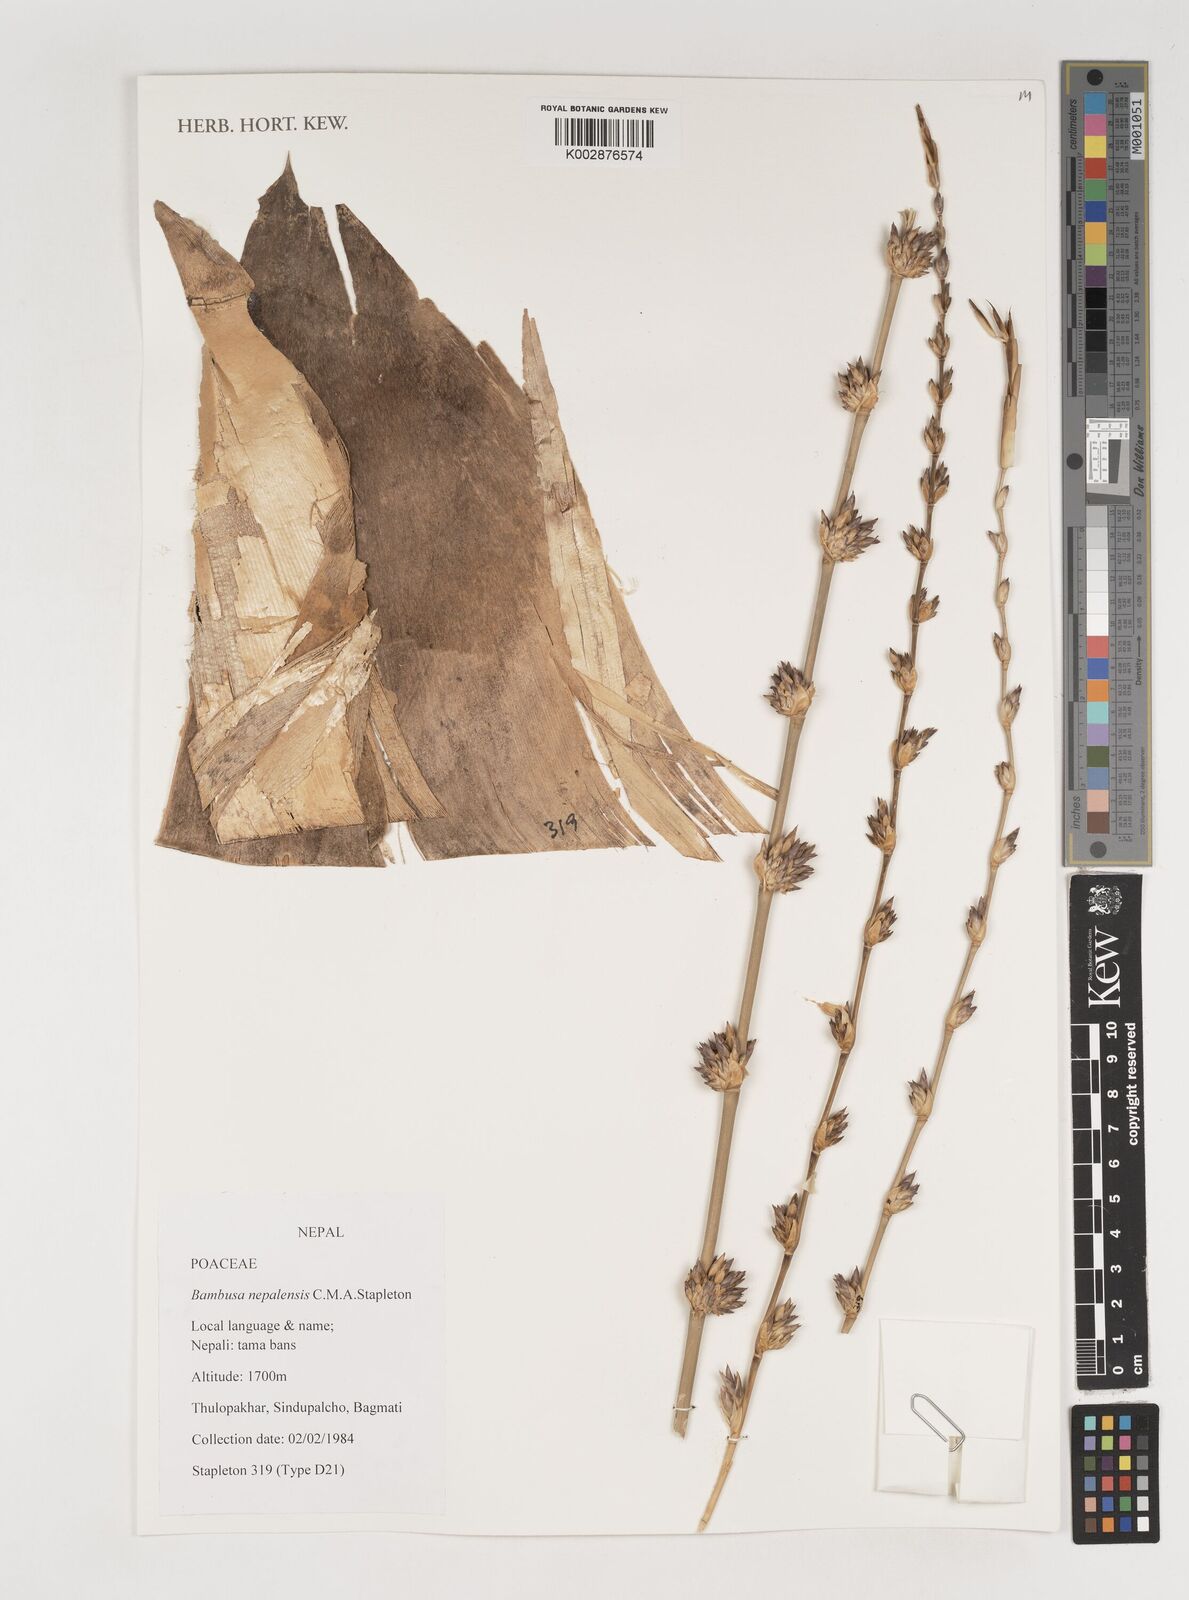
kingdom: Plantae
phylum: Tracheophyta
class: Liliopsida
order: Poales
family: Poaceae
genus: Bambusa
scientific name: Bambusa nepalensis
